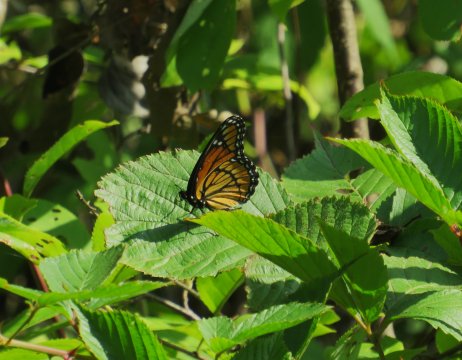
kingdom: Animalia
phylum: Arthropoda
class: Insecta
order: Lepidoptera
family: Nymphalidae
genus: Limenitis
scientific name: Limenitis archippus
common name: Viceroy
